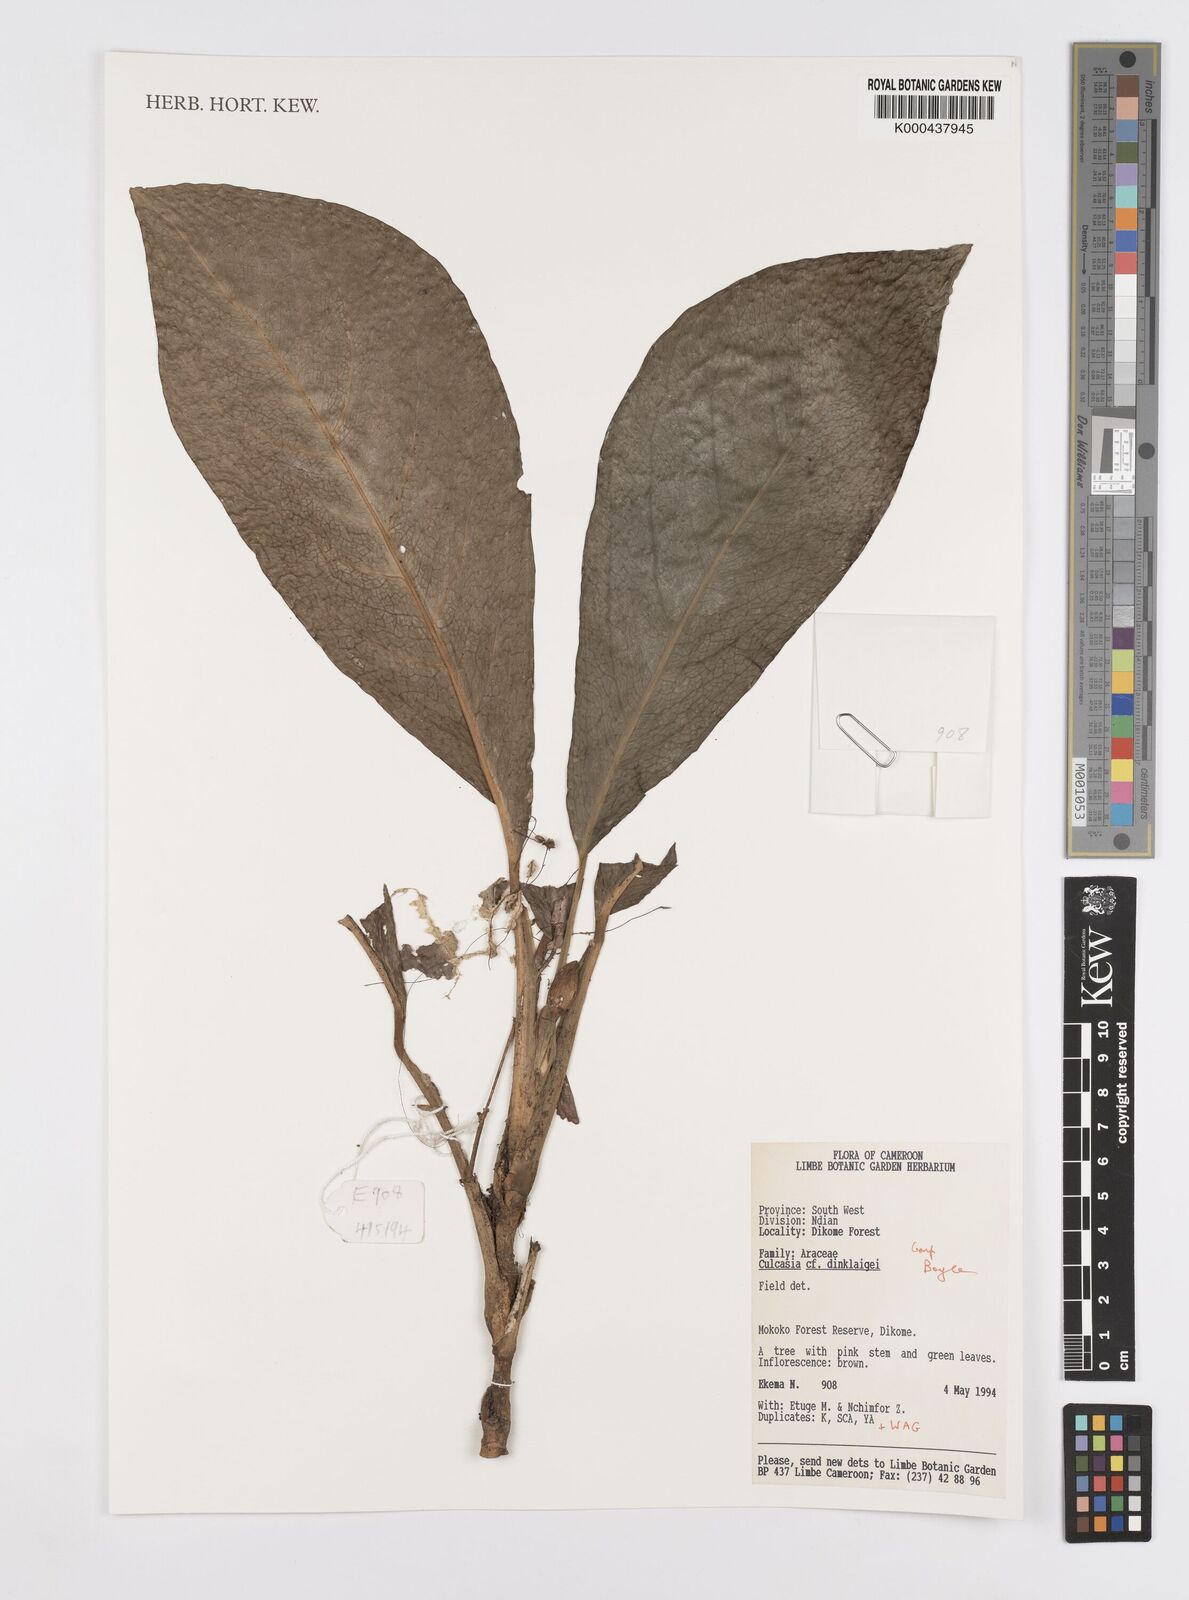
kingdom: Plantae
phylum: Tracheophyta
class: Liliopsida
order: Alismatales
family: Araceae
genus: Culcasia
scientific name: Culcasia dinklagei
